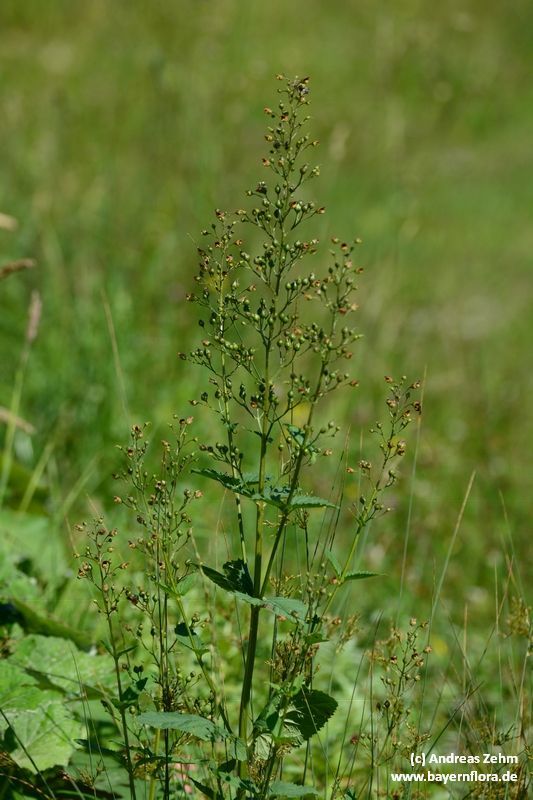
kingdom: Plantae
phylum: Tracheophyta
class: Magnoliopsida
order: Lamiales
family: Scrophulariaceae
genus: Scrophularia
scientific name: Scrophularia nodosa
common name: Common figwort
